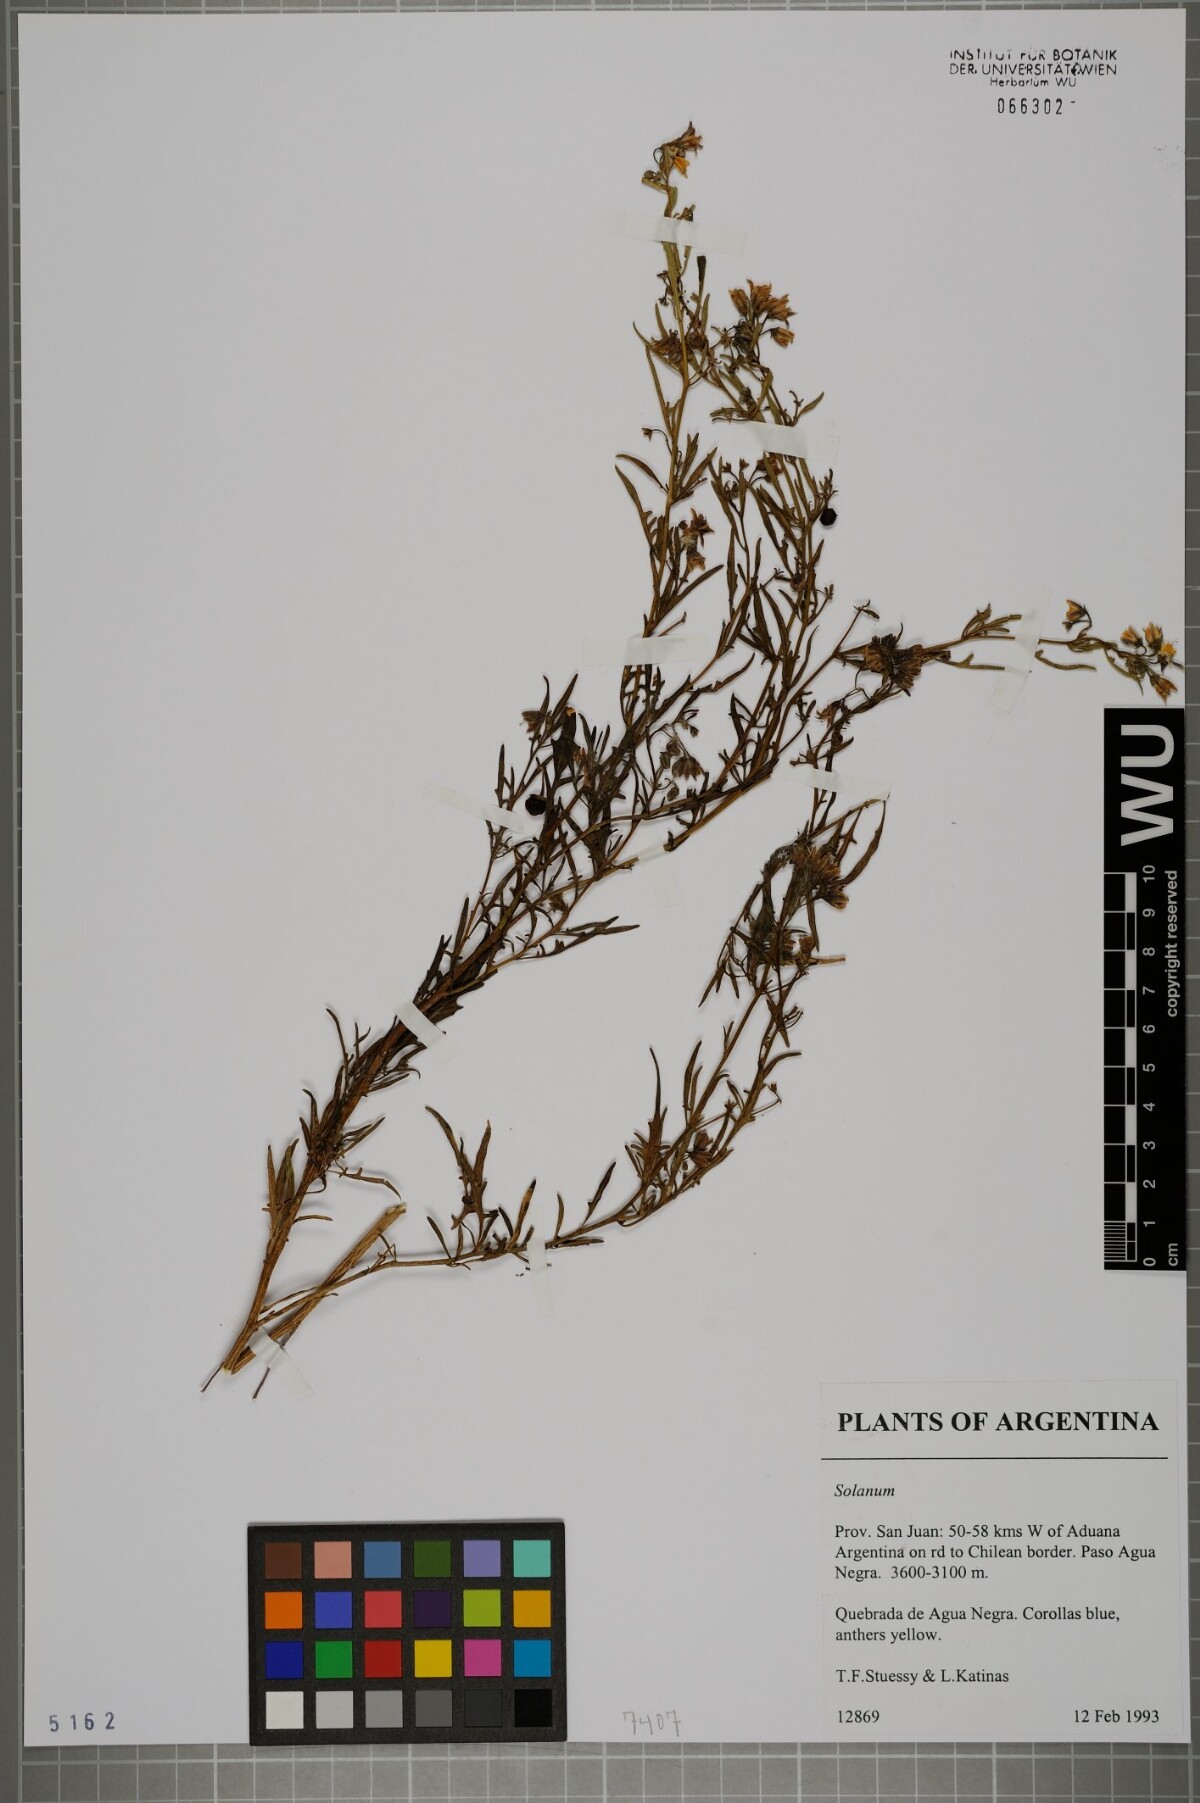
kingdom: Plantae
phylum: Tracheophyta
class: Magnoliopsida
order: Solanales
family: Solanaceae
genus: Solanum
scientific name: Solanum
